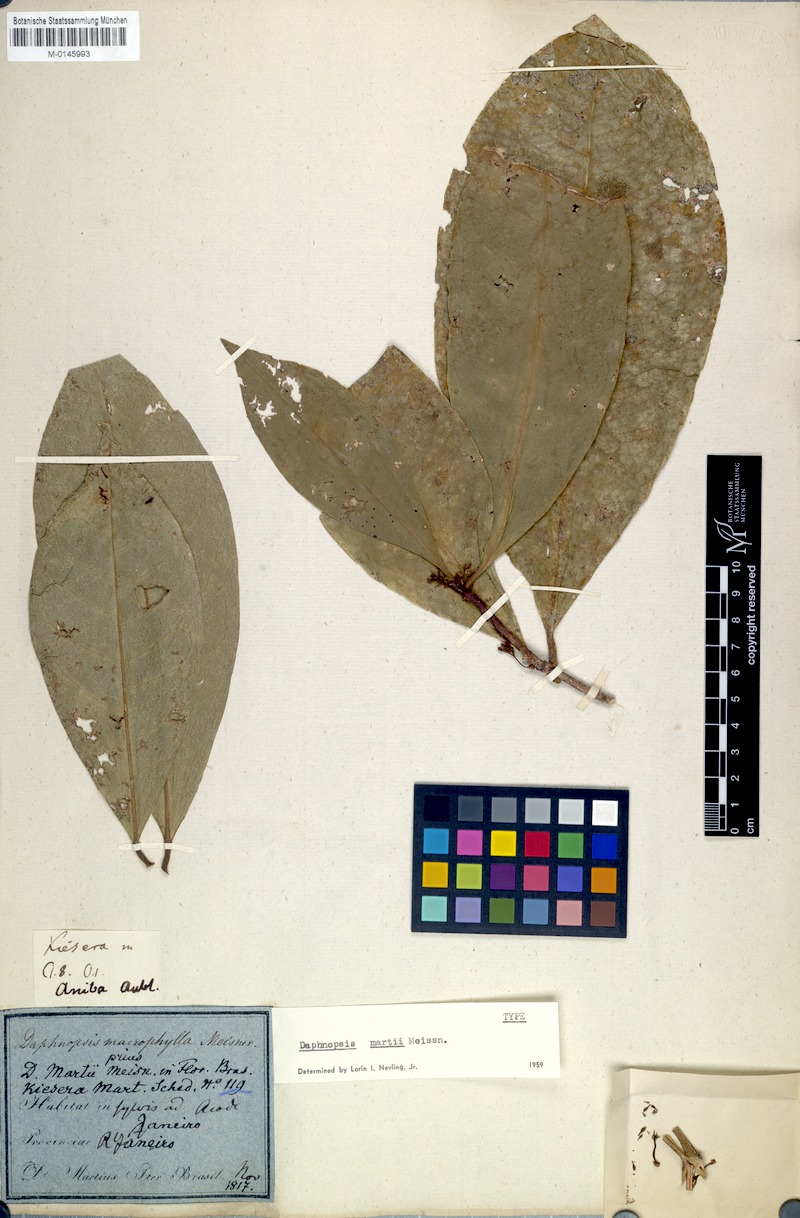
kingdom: Plantae
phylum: Tracheophyta
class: Magnoliopsida
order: Malvales
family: Thymelaeaceae
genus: Daphnopsis
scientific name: Daphnopsis martii
